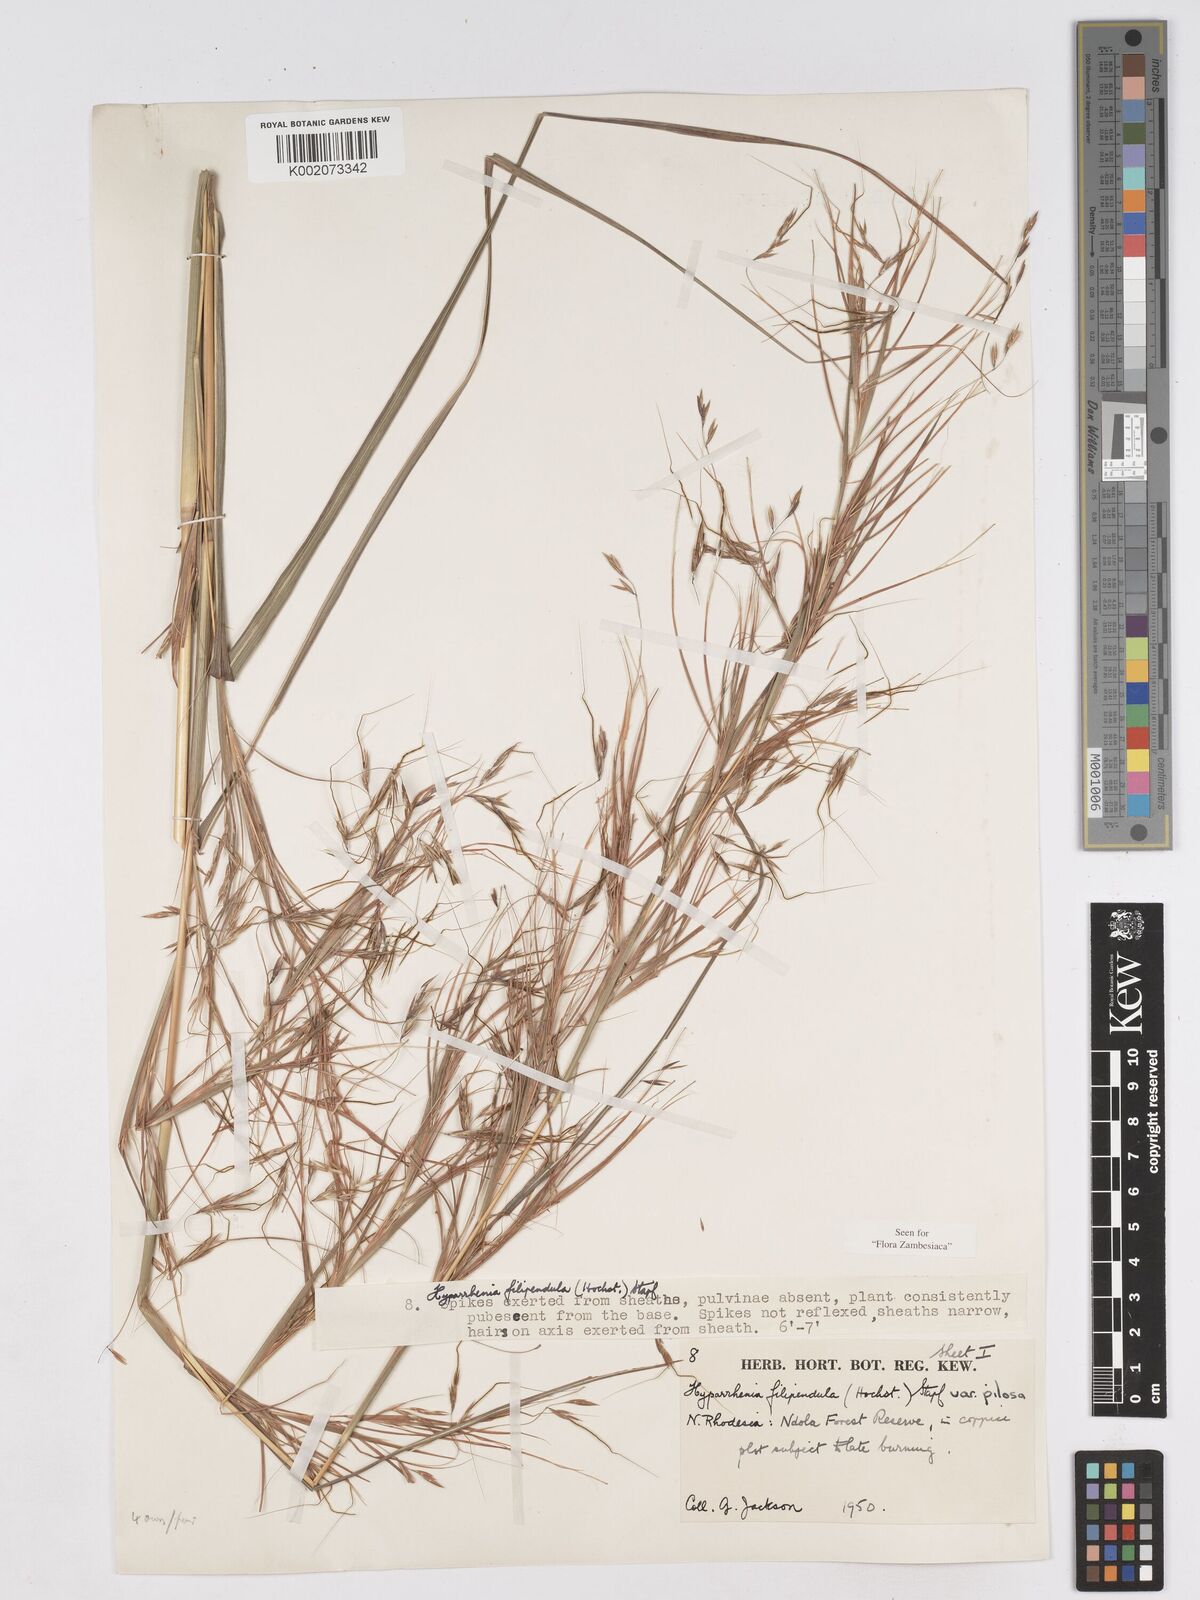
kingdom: Plantae
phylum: Tracheophyta
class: Liliopsida
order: Poales
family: Poaceae
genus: Hyparrhenia
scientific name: Hyparrhenia filipendula
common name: Tambookie grass
